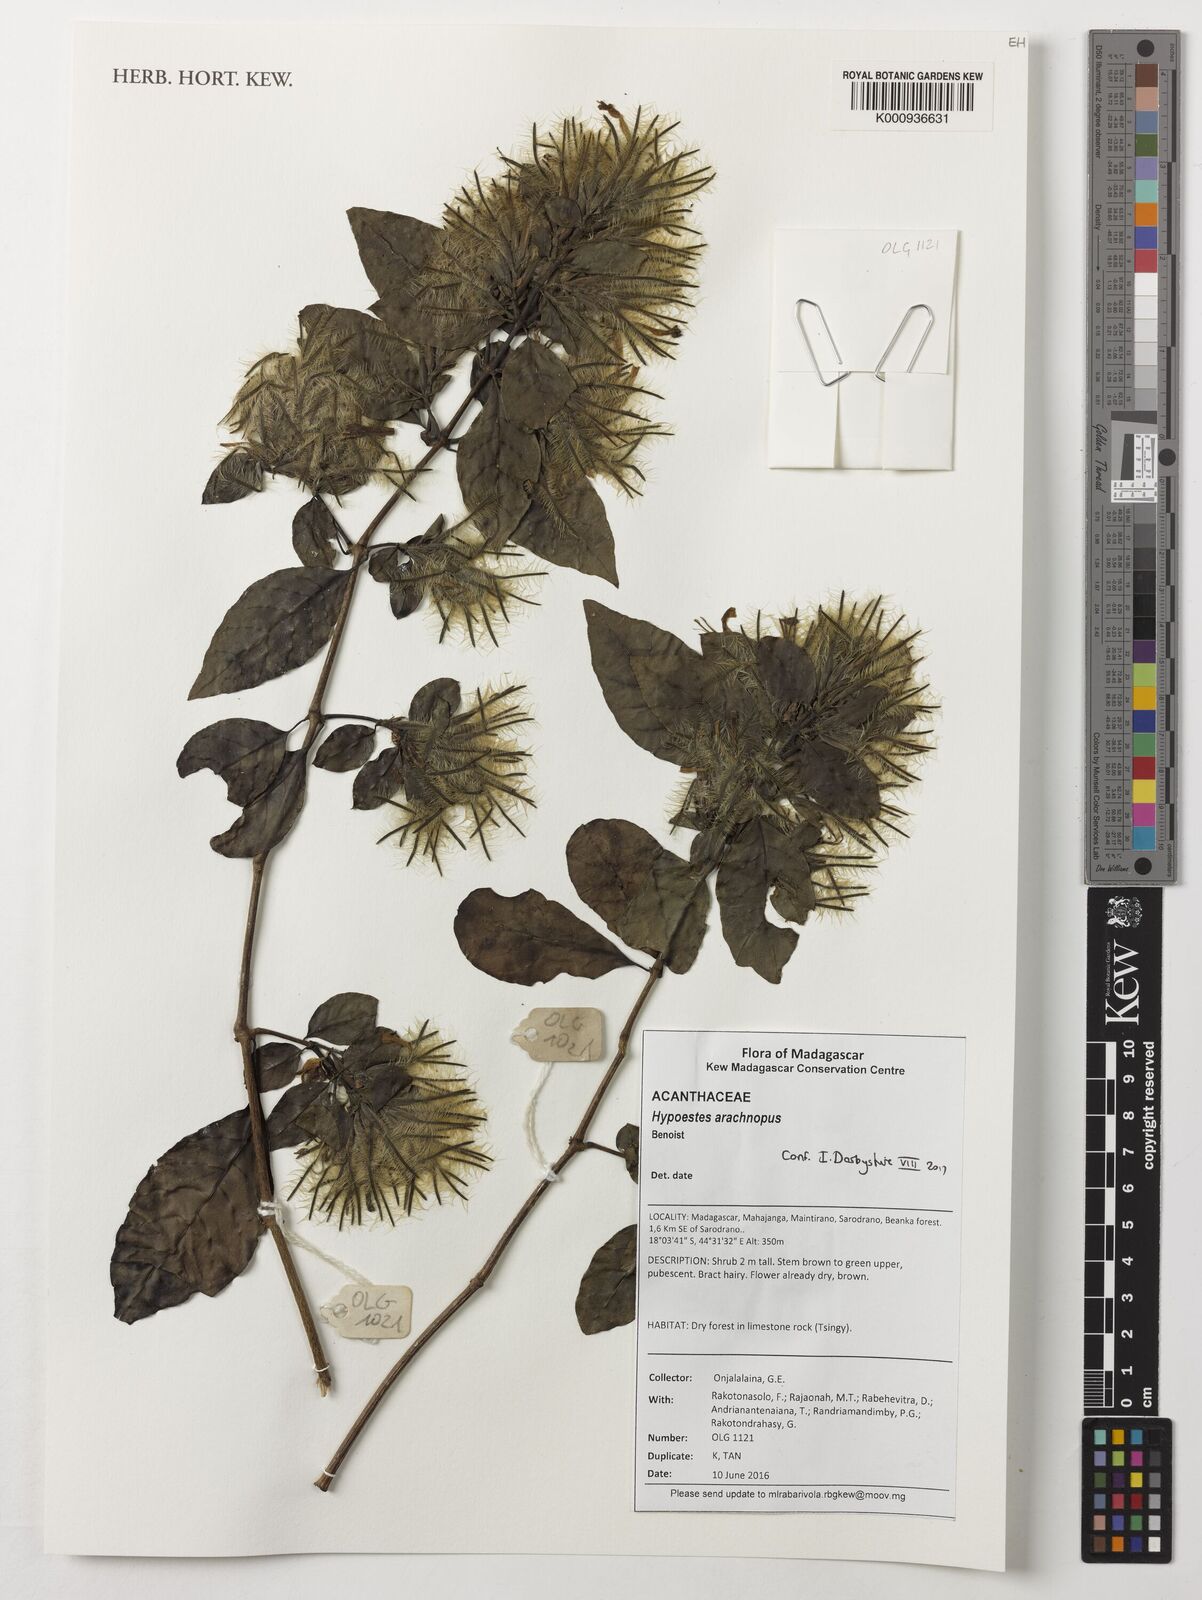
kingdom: Plantae
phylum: Tracheophyta
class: Magnoliopsida
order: Lamiales
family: Acanthaceae
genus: Hypoestes
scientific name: Hypoestes arachnopus
